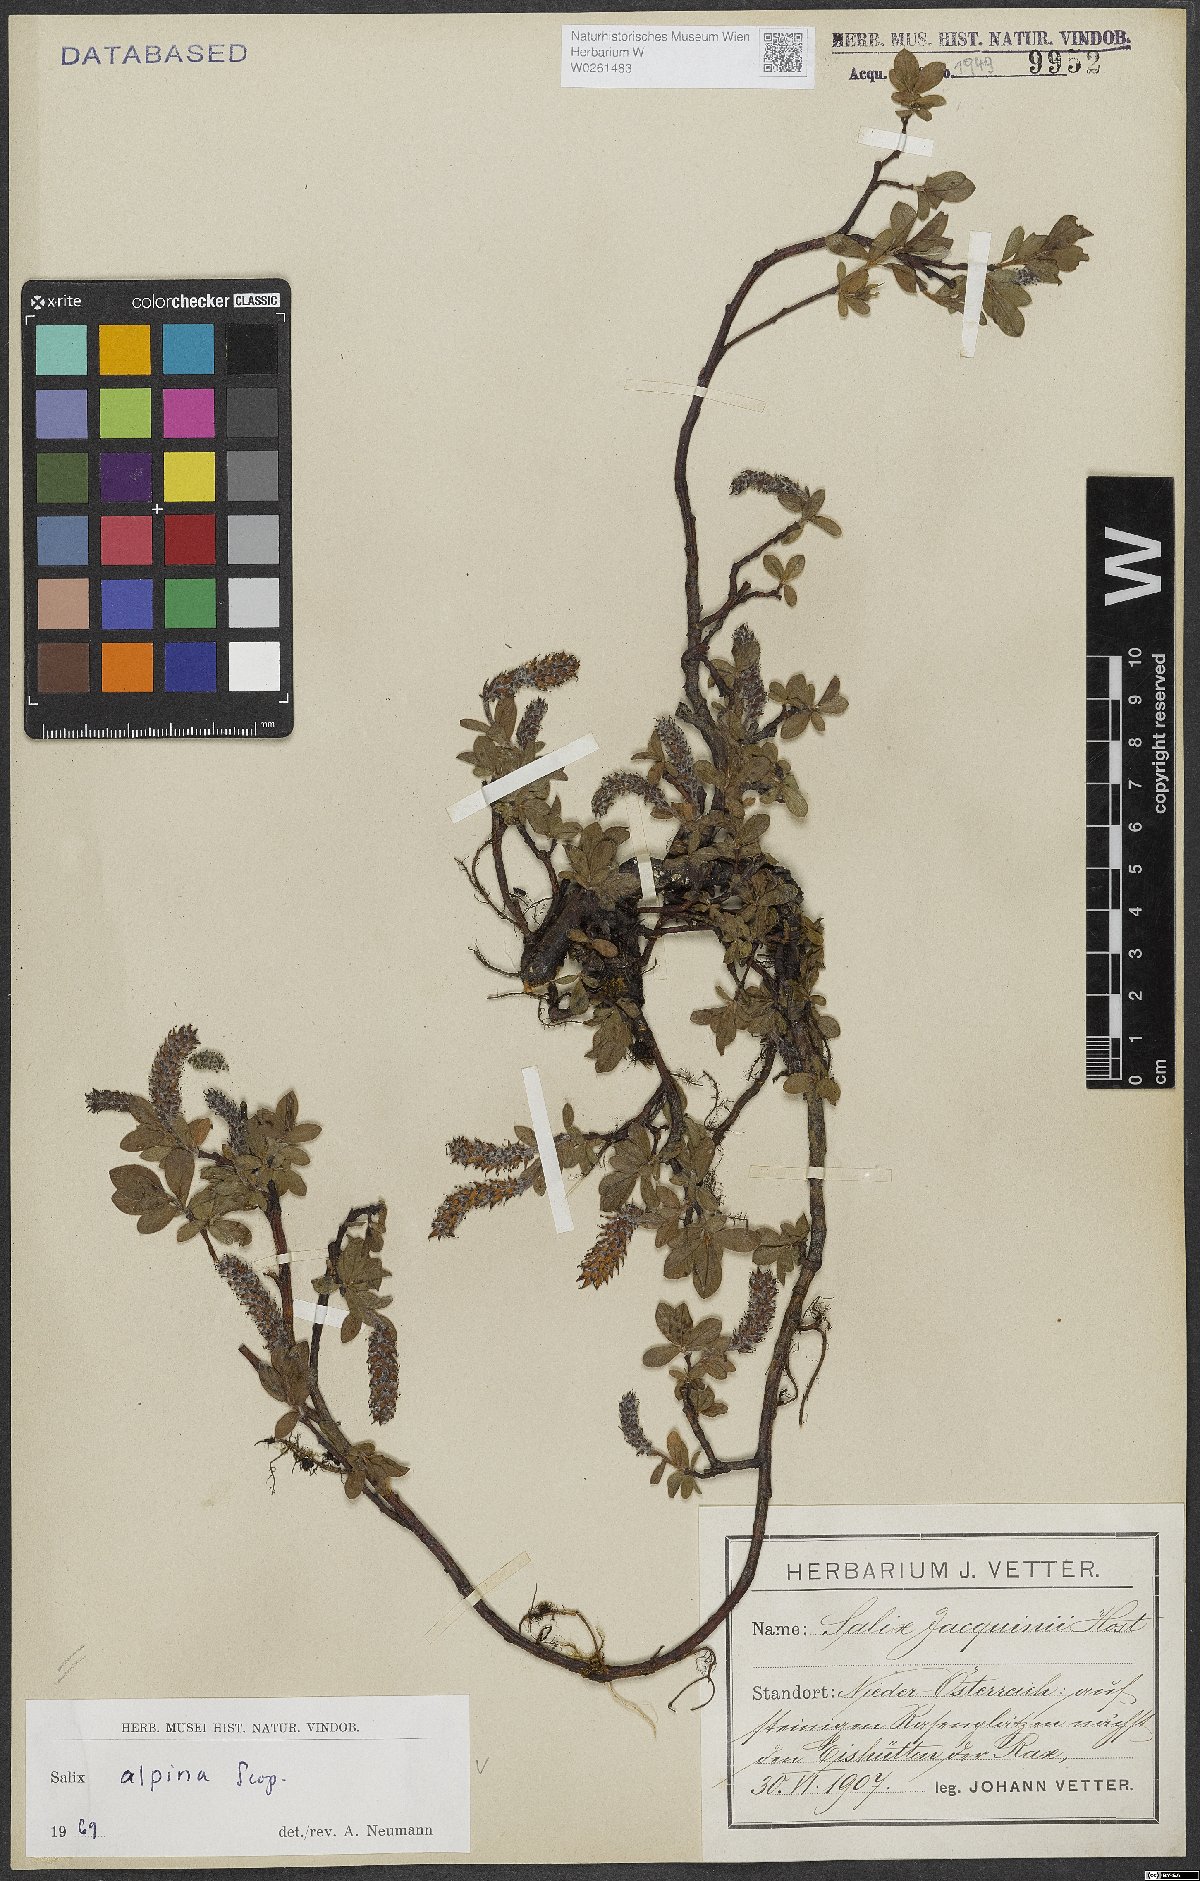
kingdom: Plantae
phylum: Tracheophyta
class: Magnoliopsida
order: Malpighiales
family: Salicaceae
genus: Salix
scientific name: Salix alpina
